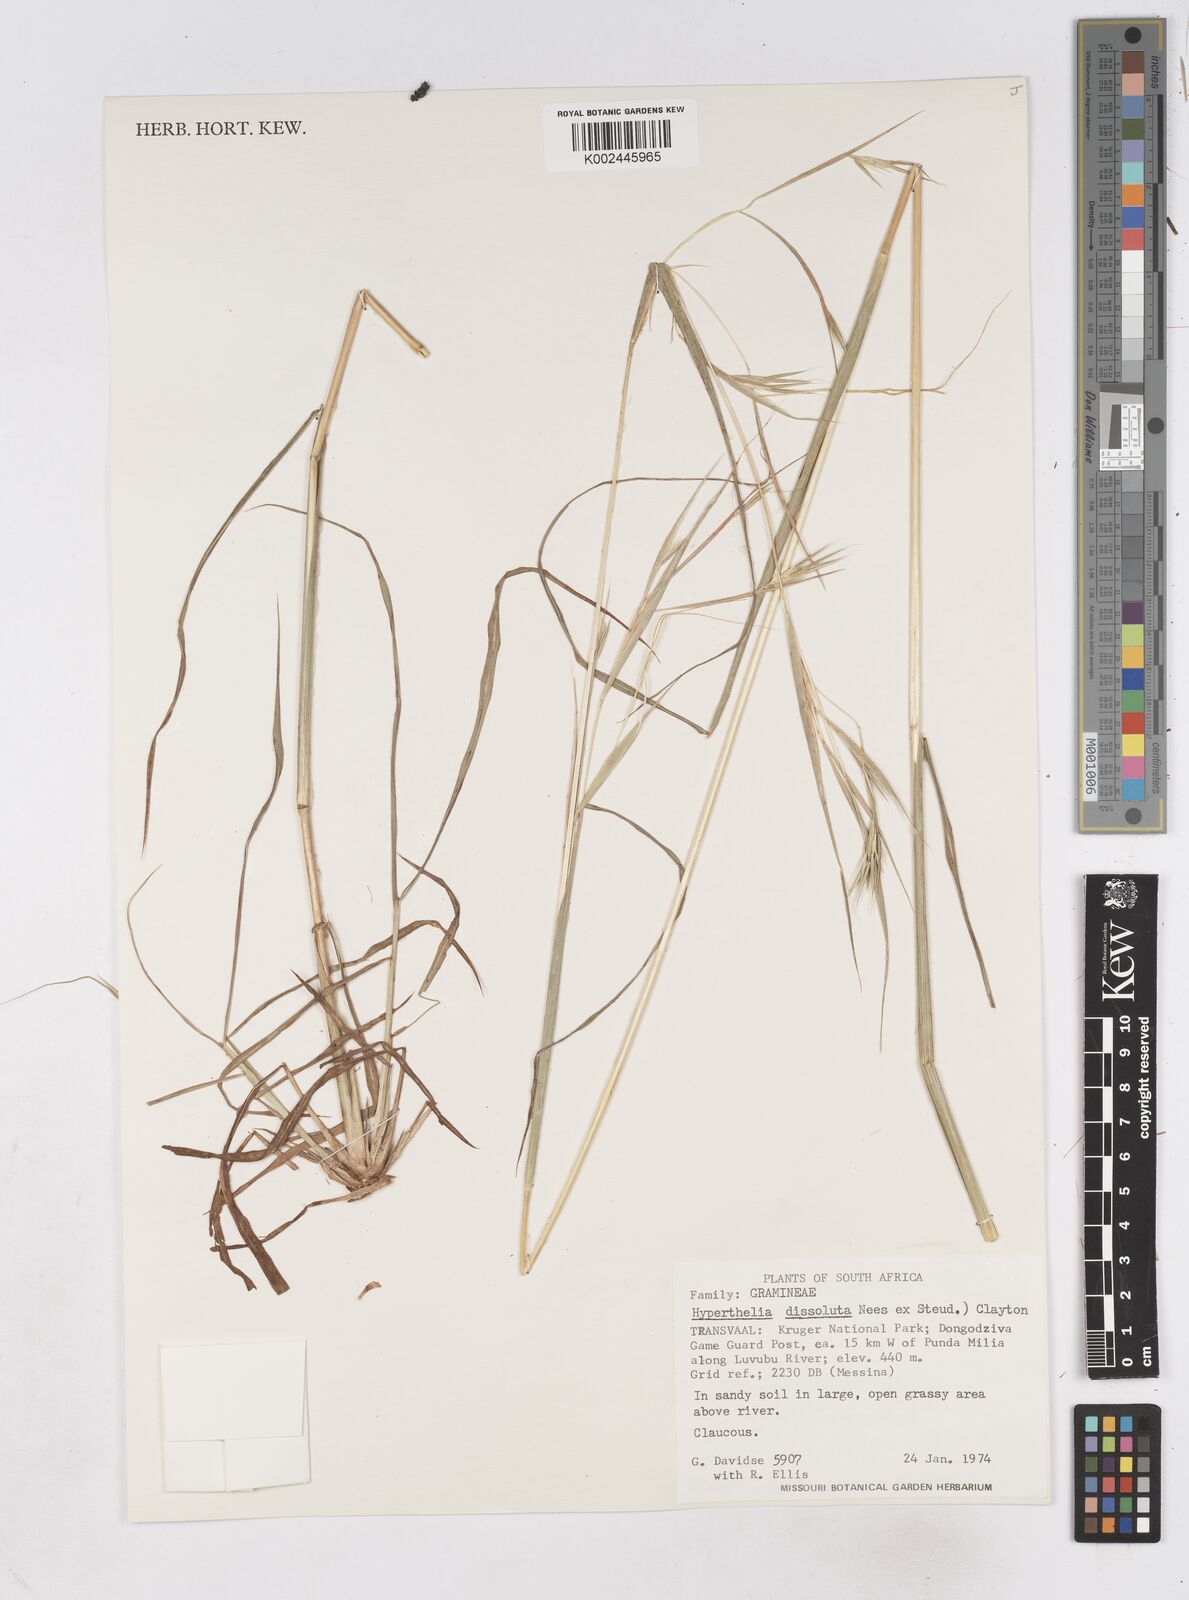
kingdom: Plantae
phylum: Tracheophyta
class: Liliopsida
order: Poales
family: Poaceae
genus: Hyperthelia
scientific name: Hyperthelia dissoluta
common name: Yellow thatching grass
